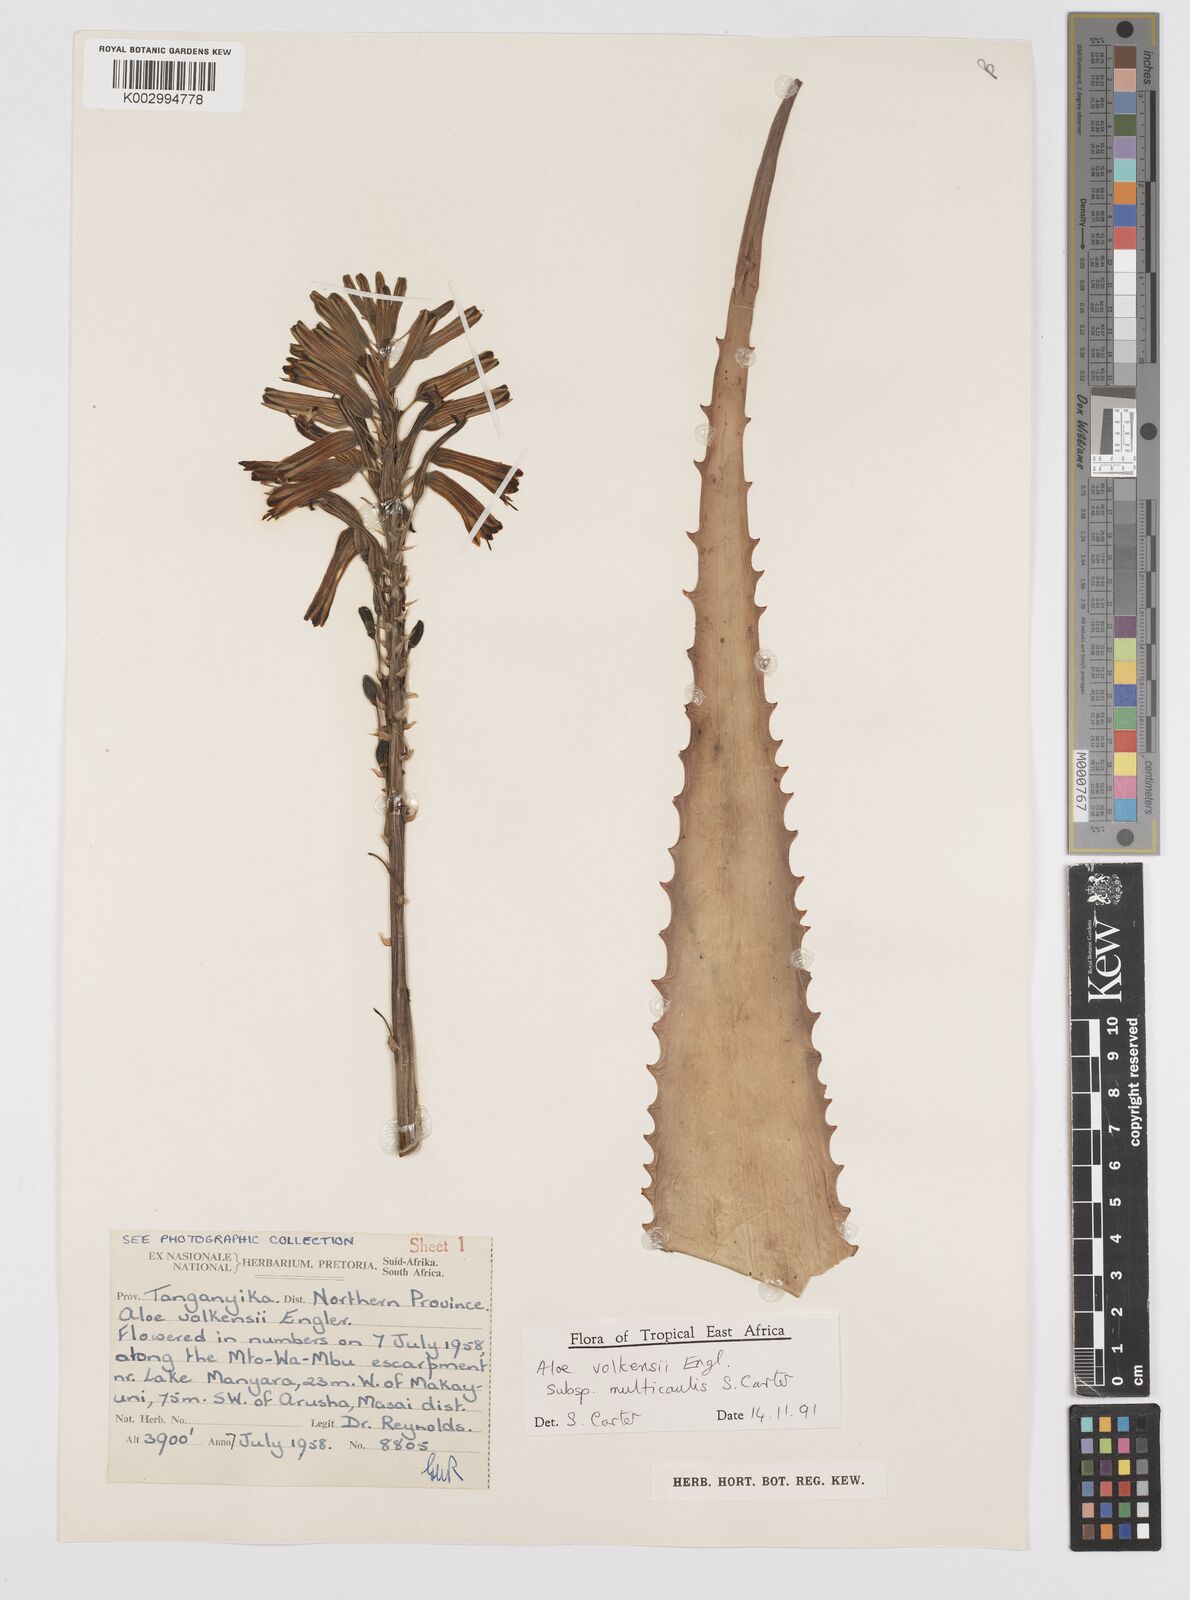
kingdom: Plantae
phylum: Tracheophyta
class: Liliopsida
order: Asparagales
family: Asphodelaceae
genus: Aloe
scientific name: Aloe volkensii
